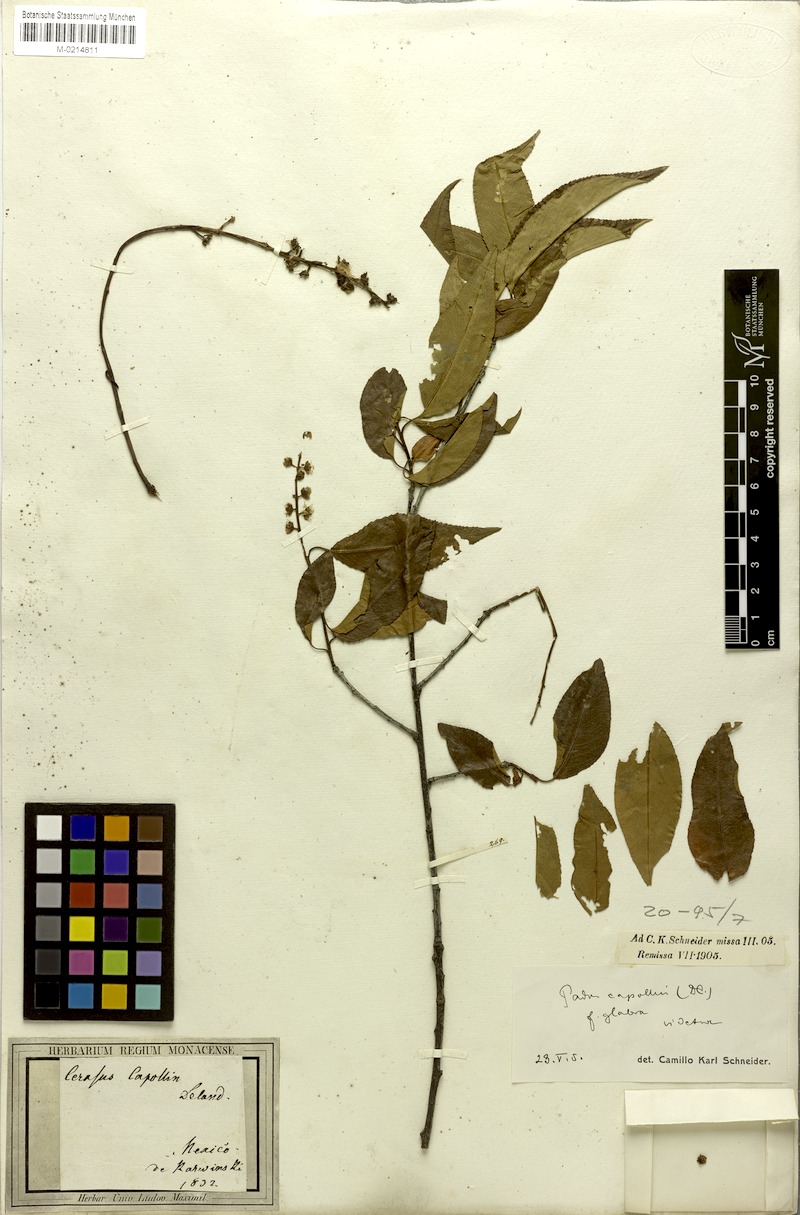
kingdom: Plantae
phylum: Tracheophyta
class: Magnoliopsida
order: Rosales
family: Rosaceae
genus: Prunus
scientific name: Prunus serotina
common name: Black cherry
